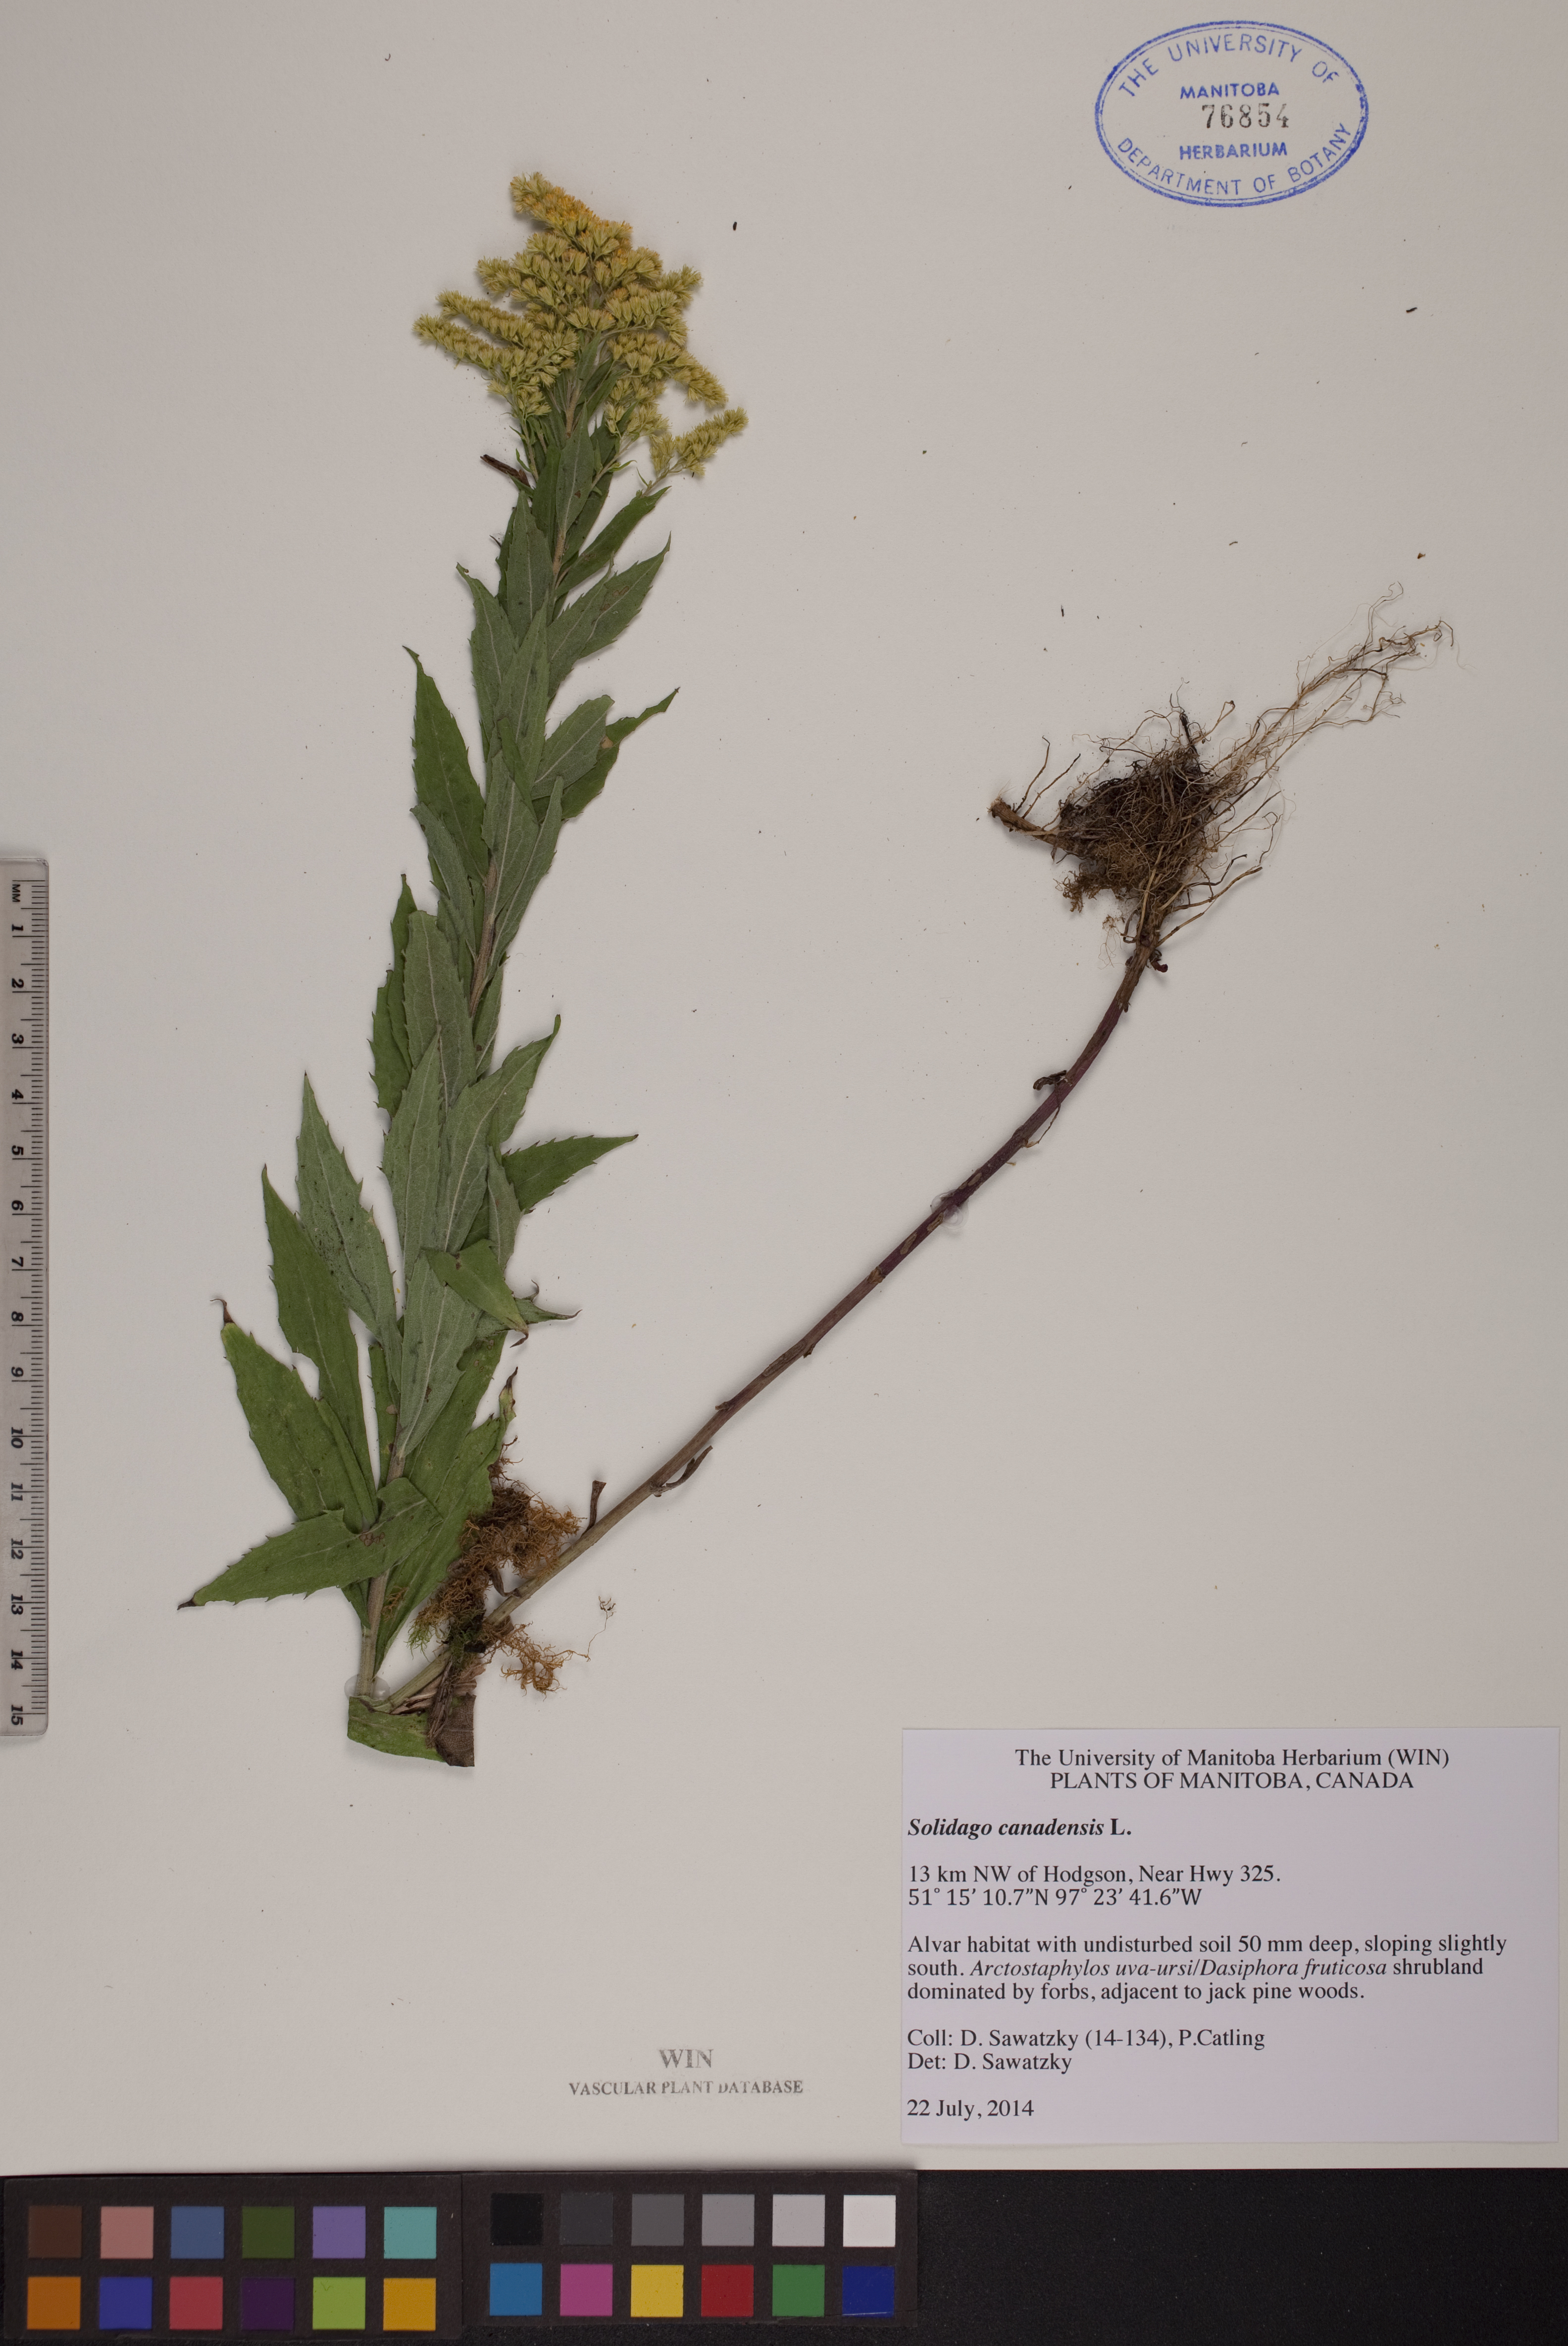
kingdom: Plantae
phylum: Tracheophyta
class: Magnoliopsida
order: Asterales
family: Asteraceae
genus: Solidago
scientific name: Solidago canadensis
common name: Canada goldenrod
